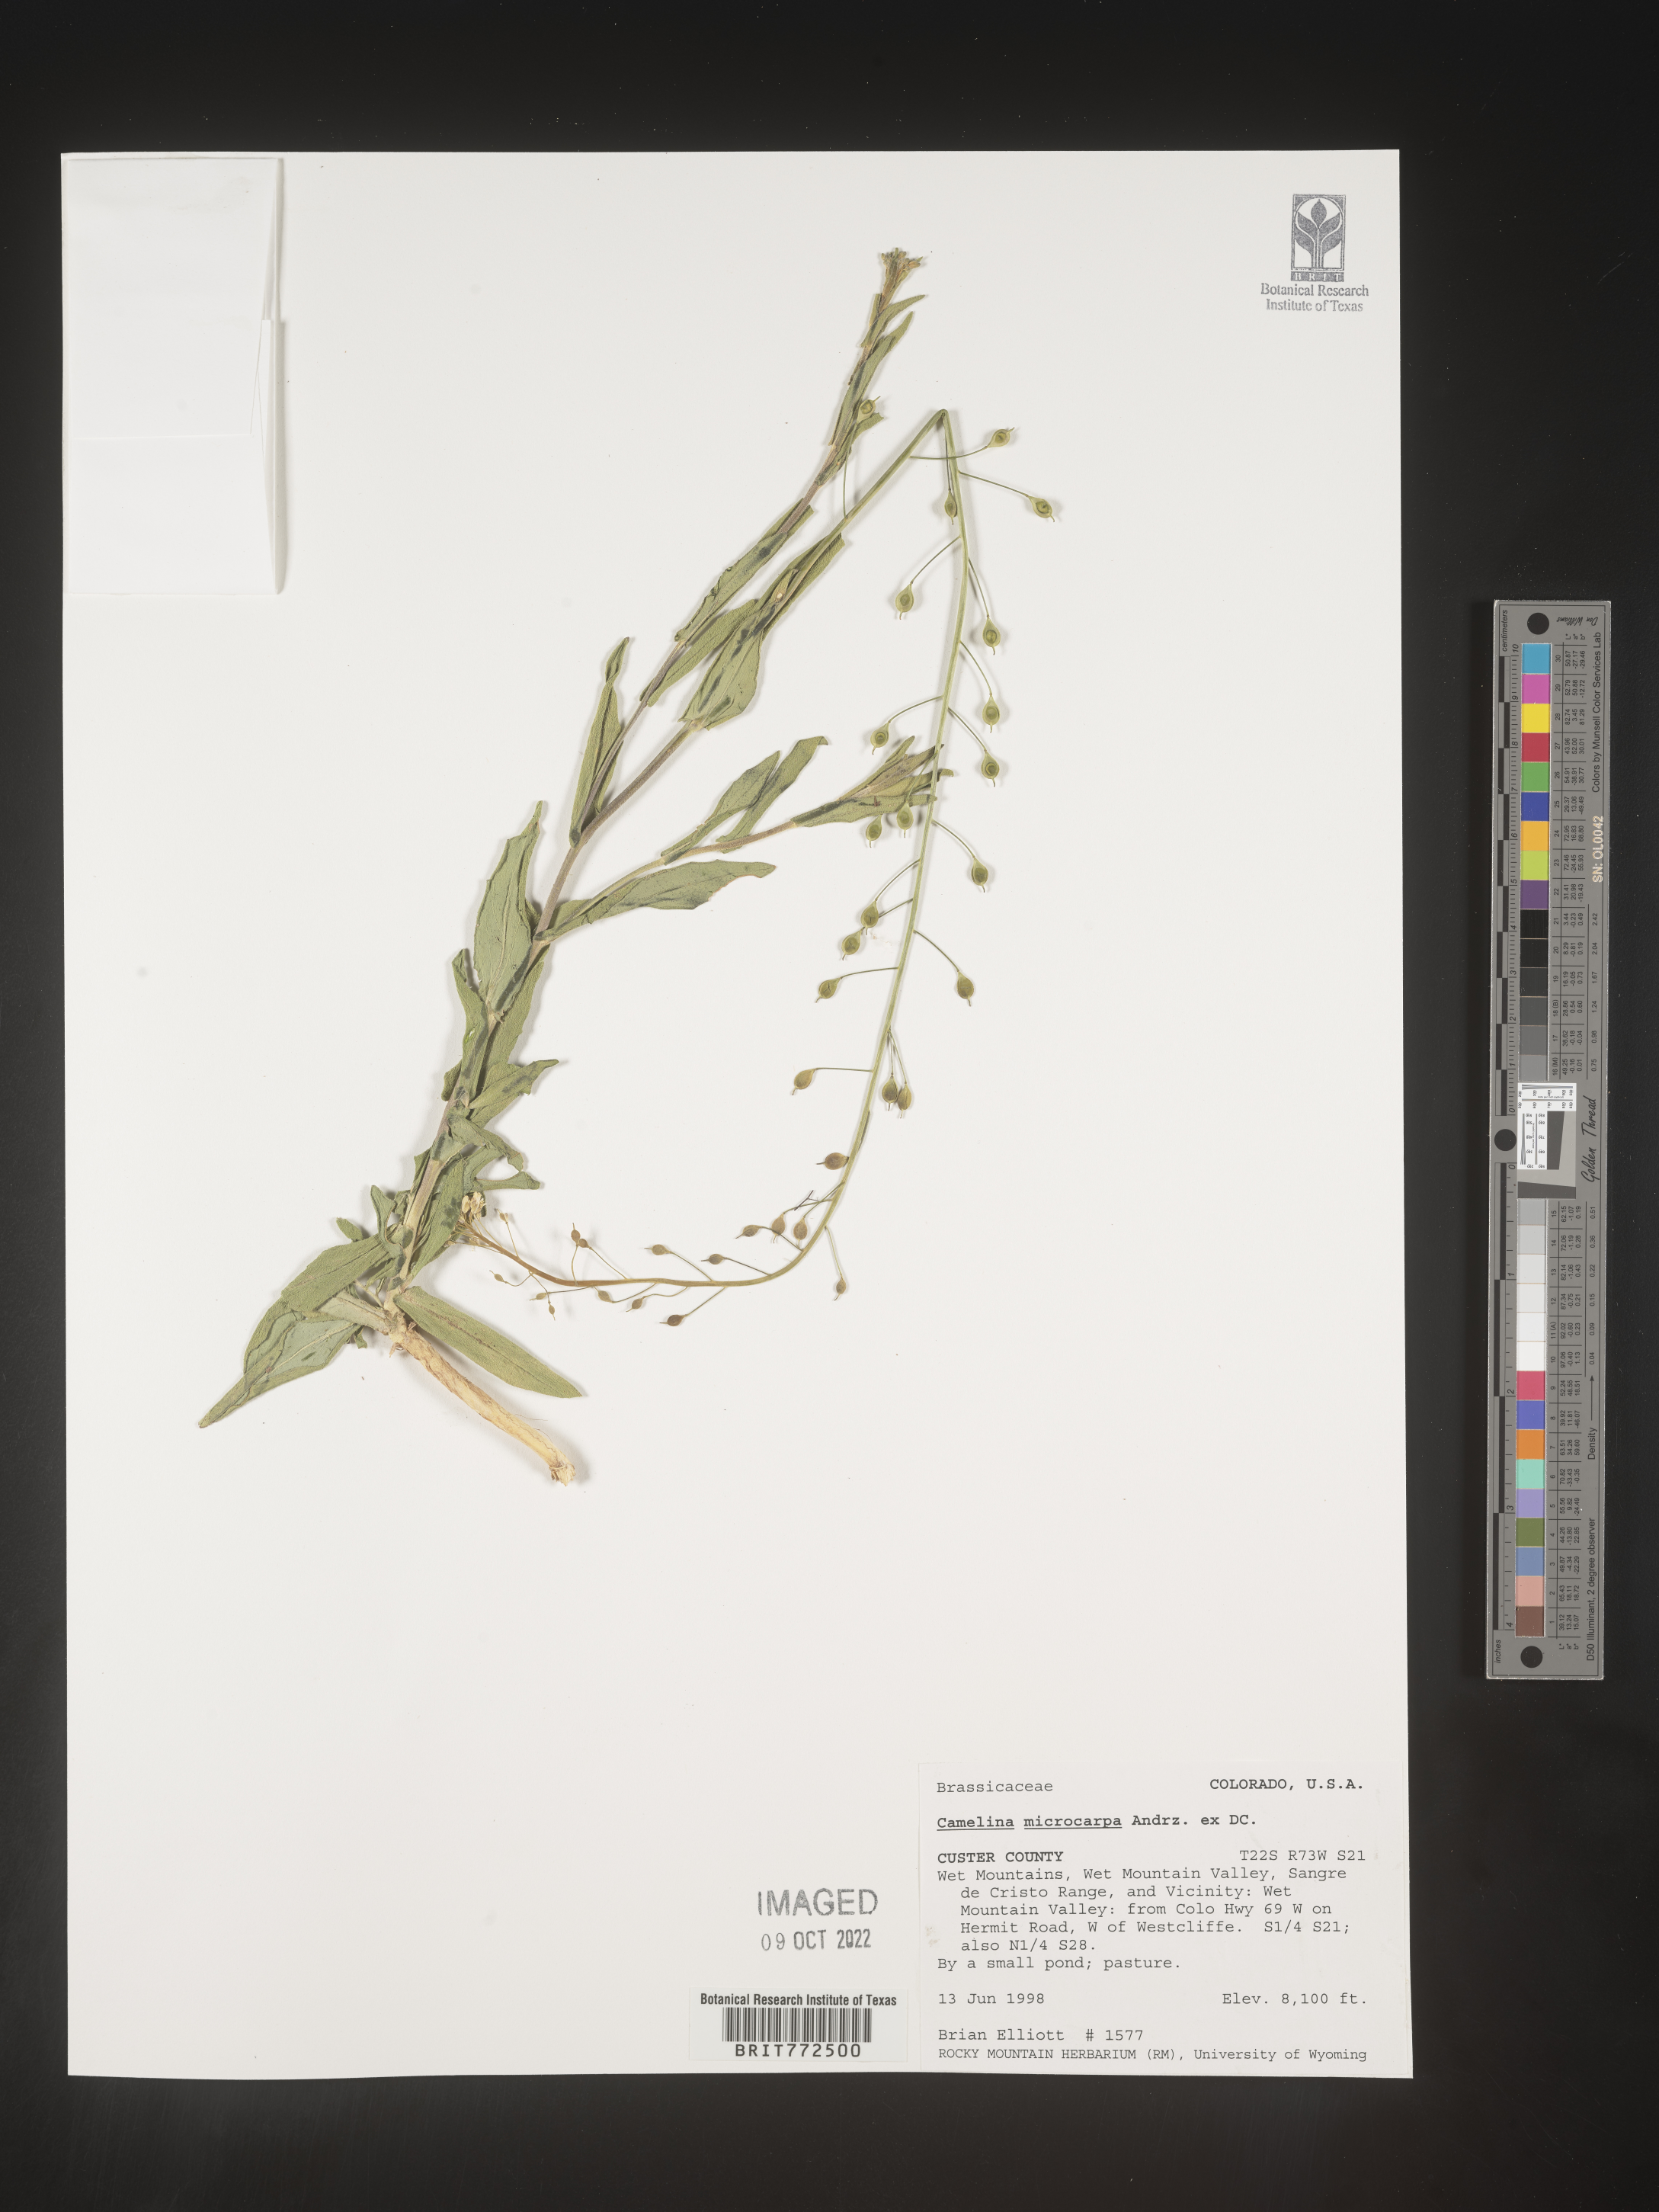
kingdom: Plantae
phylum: Tracheophyta
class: Magnoliopsida
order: Brassicales
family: Brassicaceae
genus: Camelina
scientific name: Camelina microcarpa
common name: Lesser gold-of-pleasure
